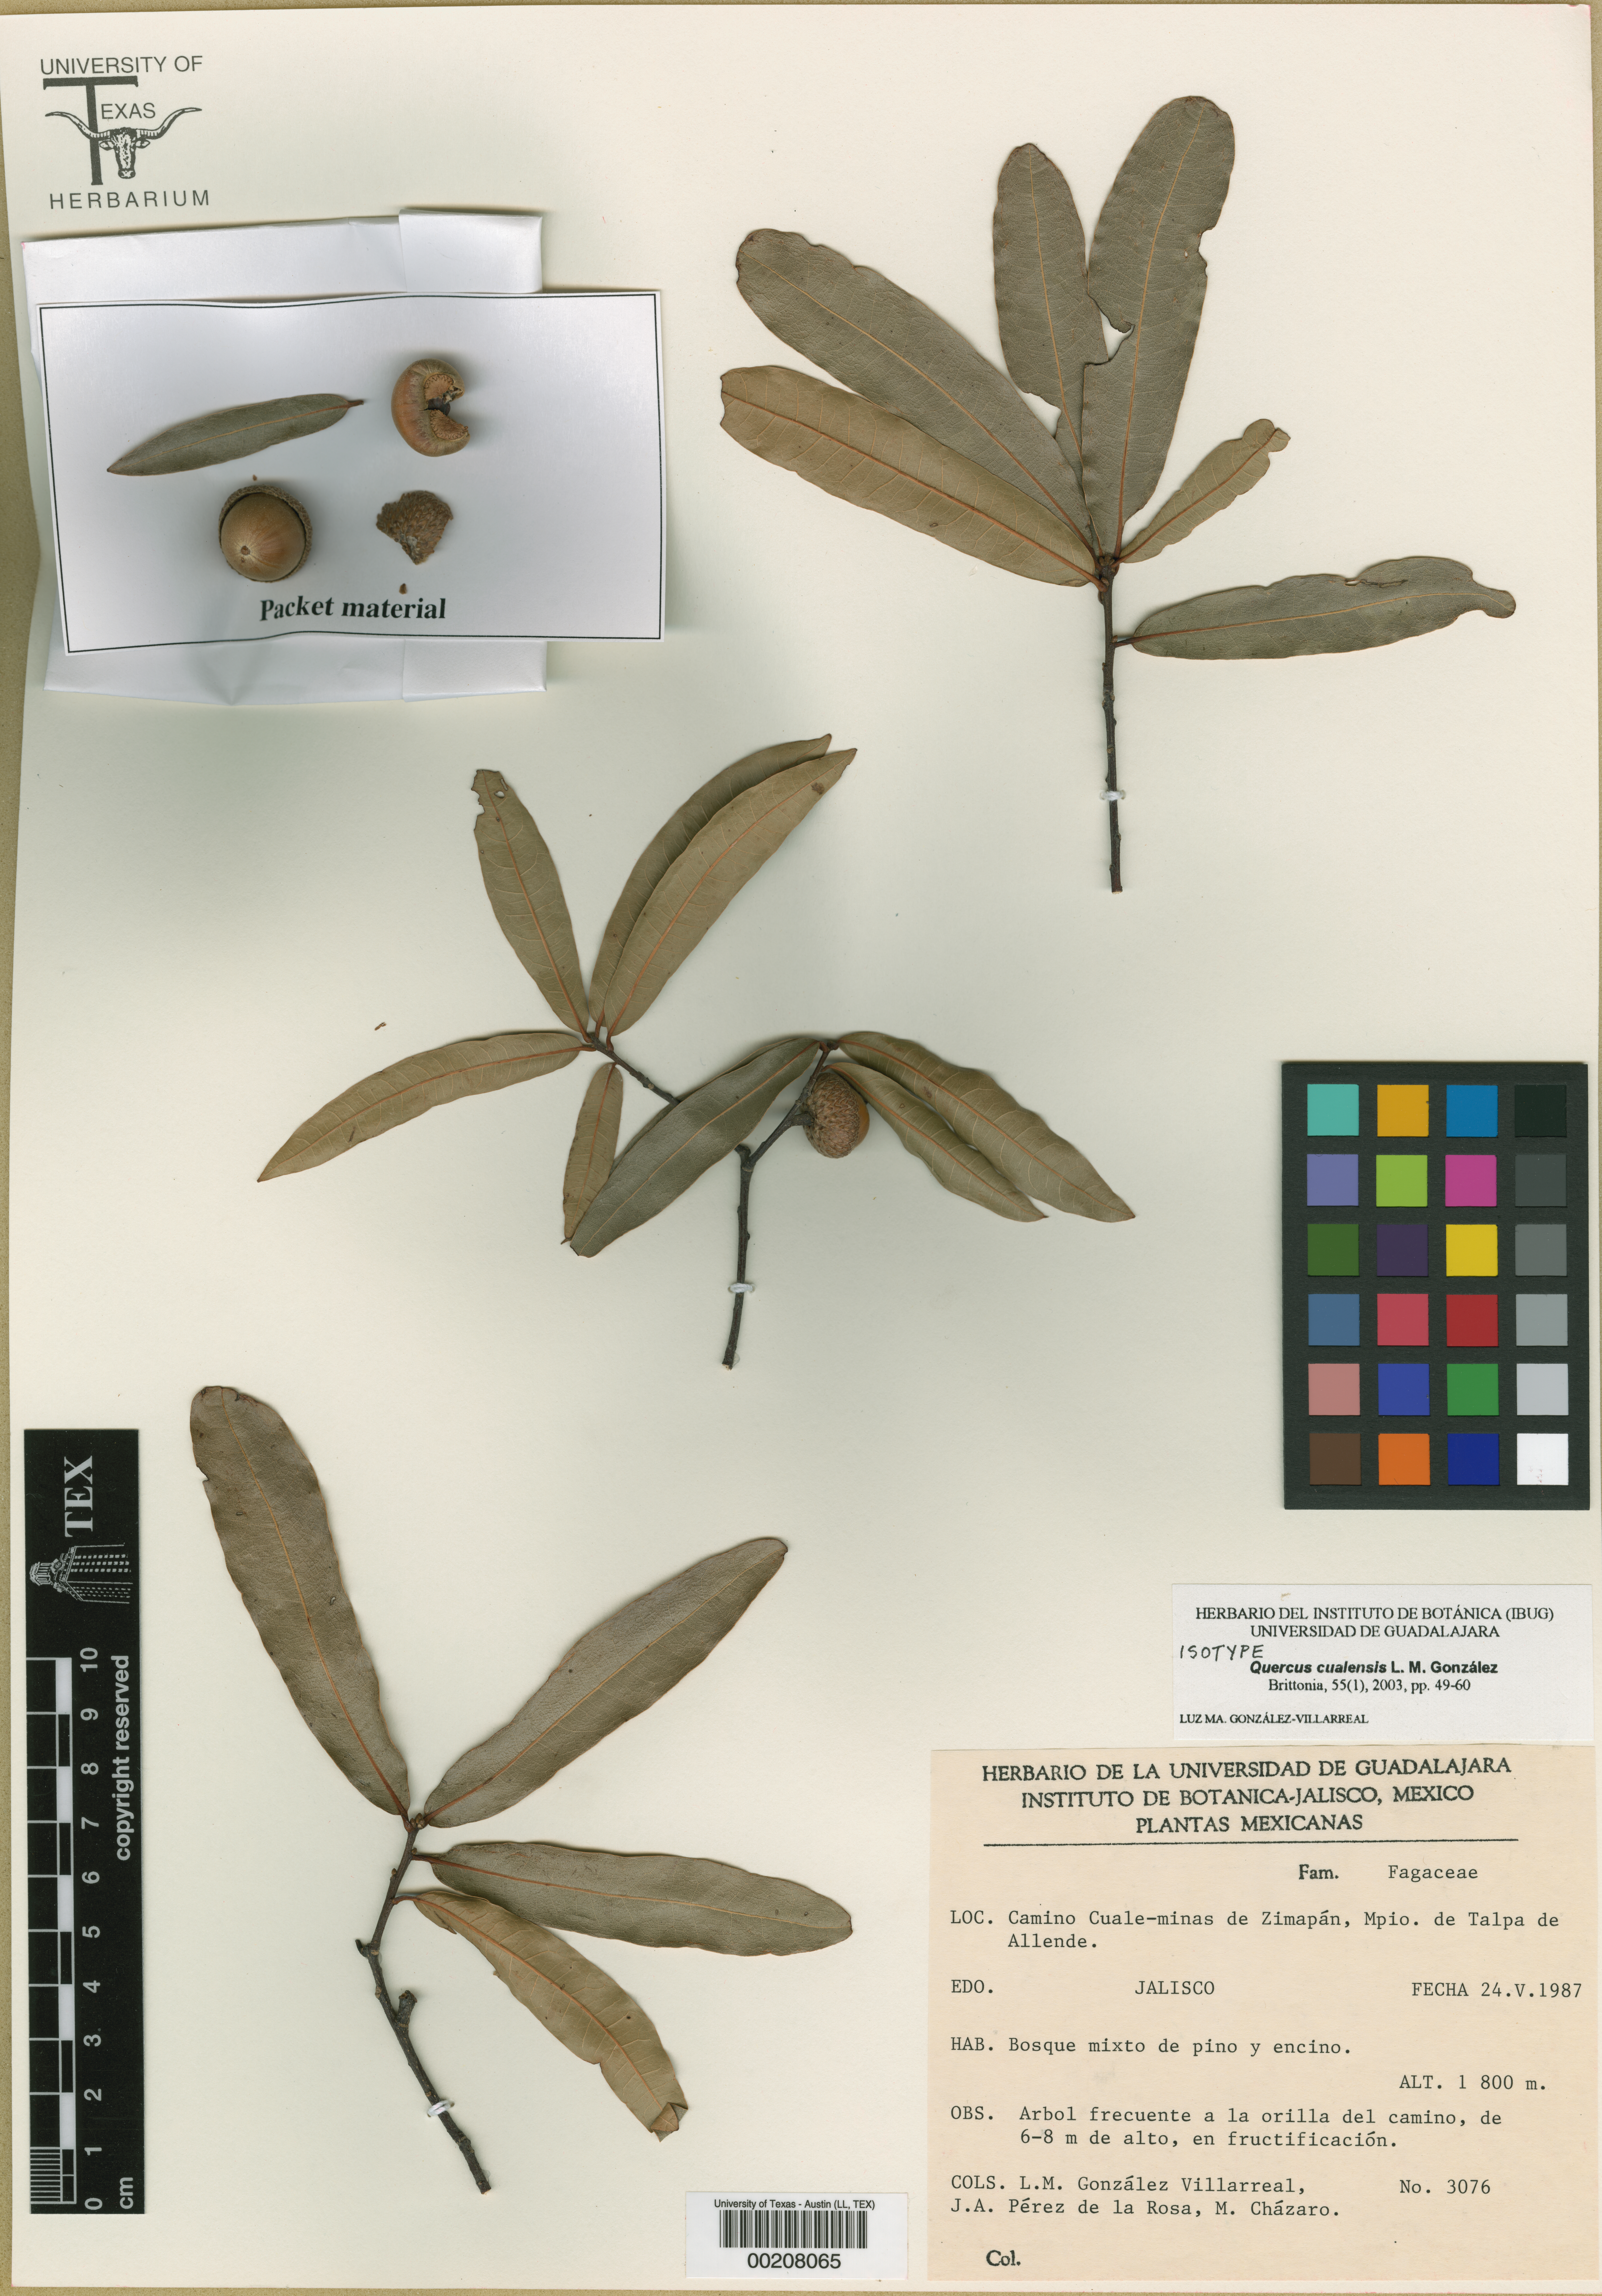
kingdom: Plantae
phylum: Tracheophyta
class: Magnoliopsida
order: Fagales
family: Fagaceae
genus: Quercus
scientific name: Quercus cualensis
